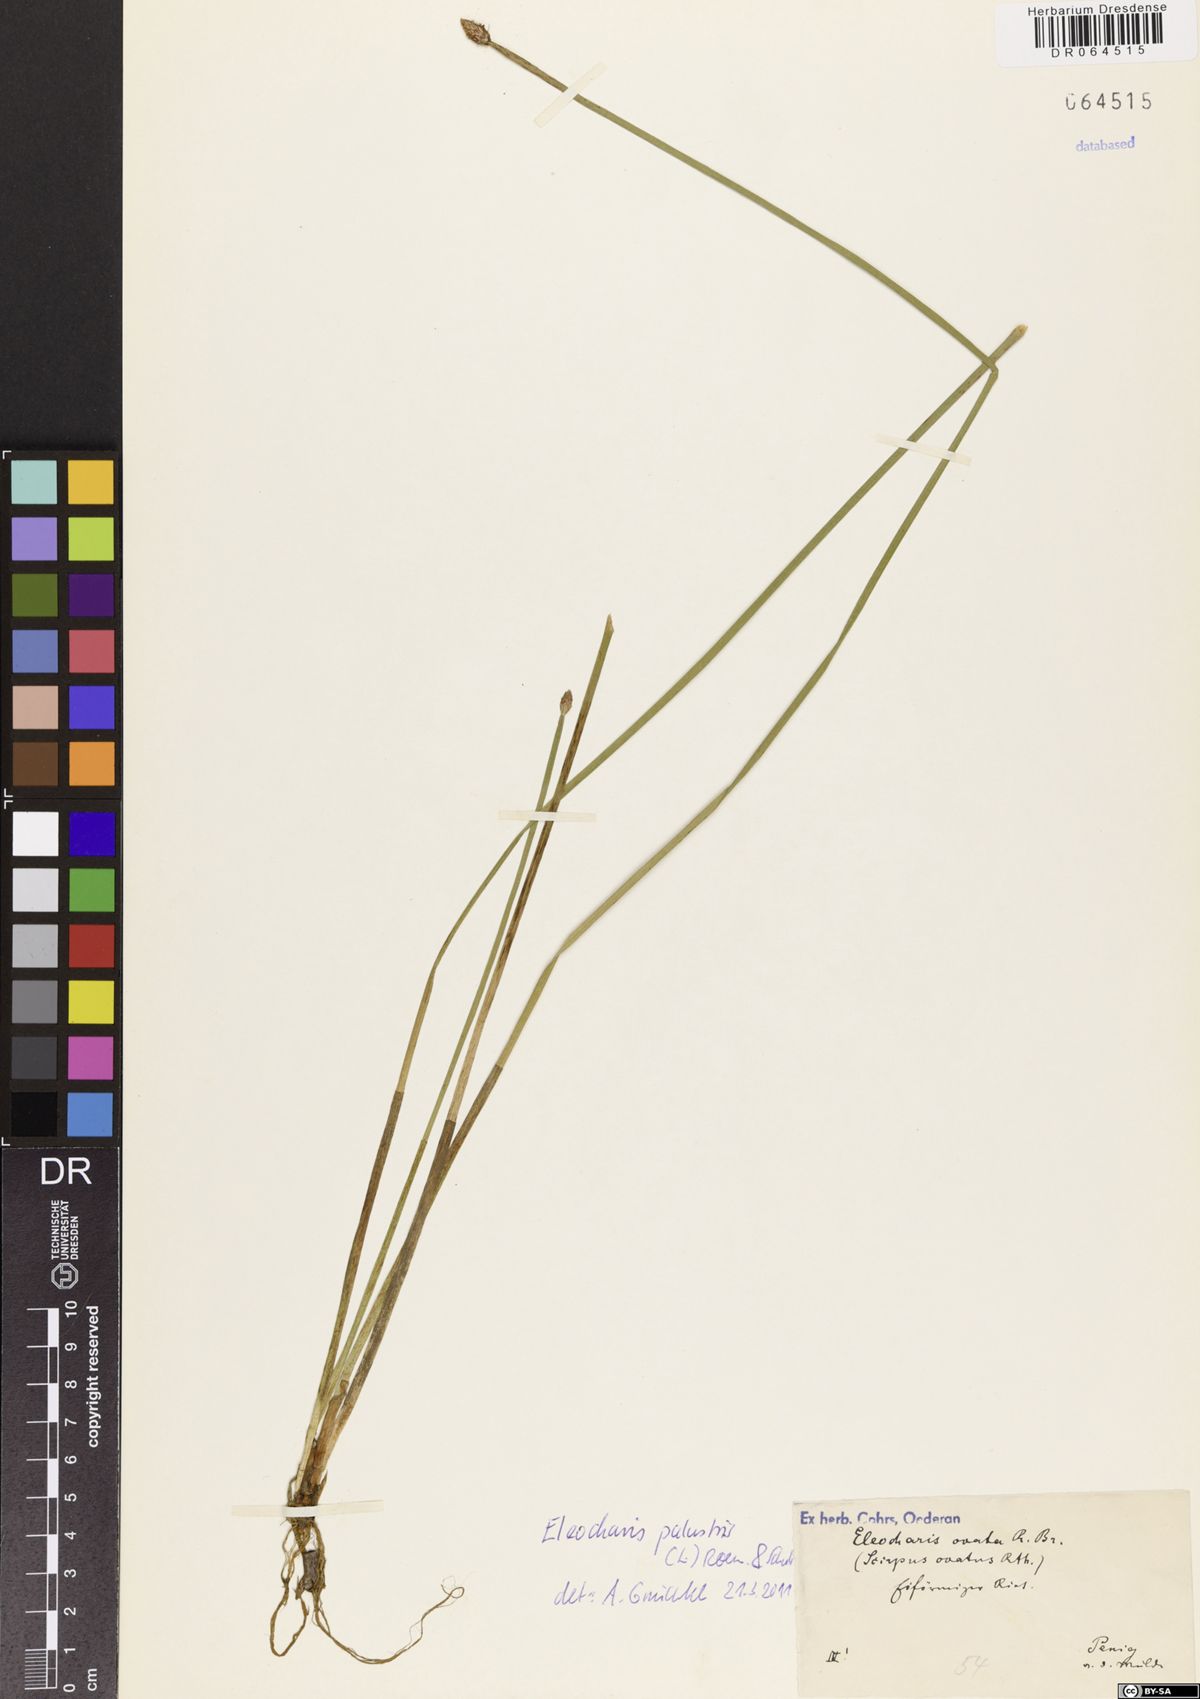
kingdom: Plantae
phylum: Tracheophyta
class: Liliopsida
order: Poales
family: Cyperaceae
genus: Eleocharis
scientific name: Eleocharis palustris
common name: Common spike-rush
